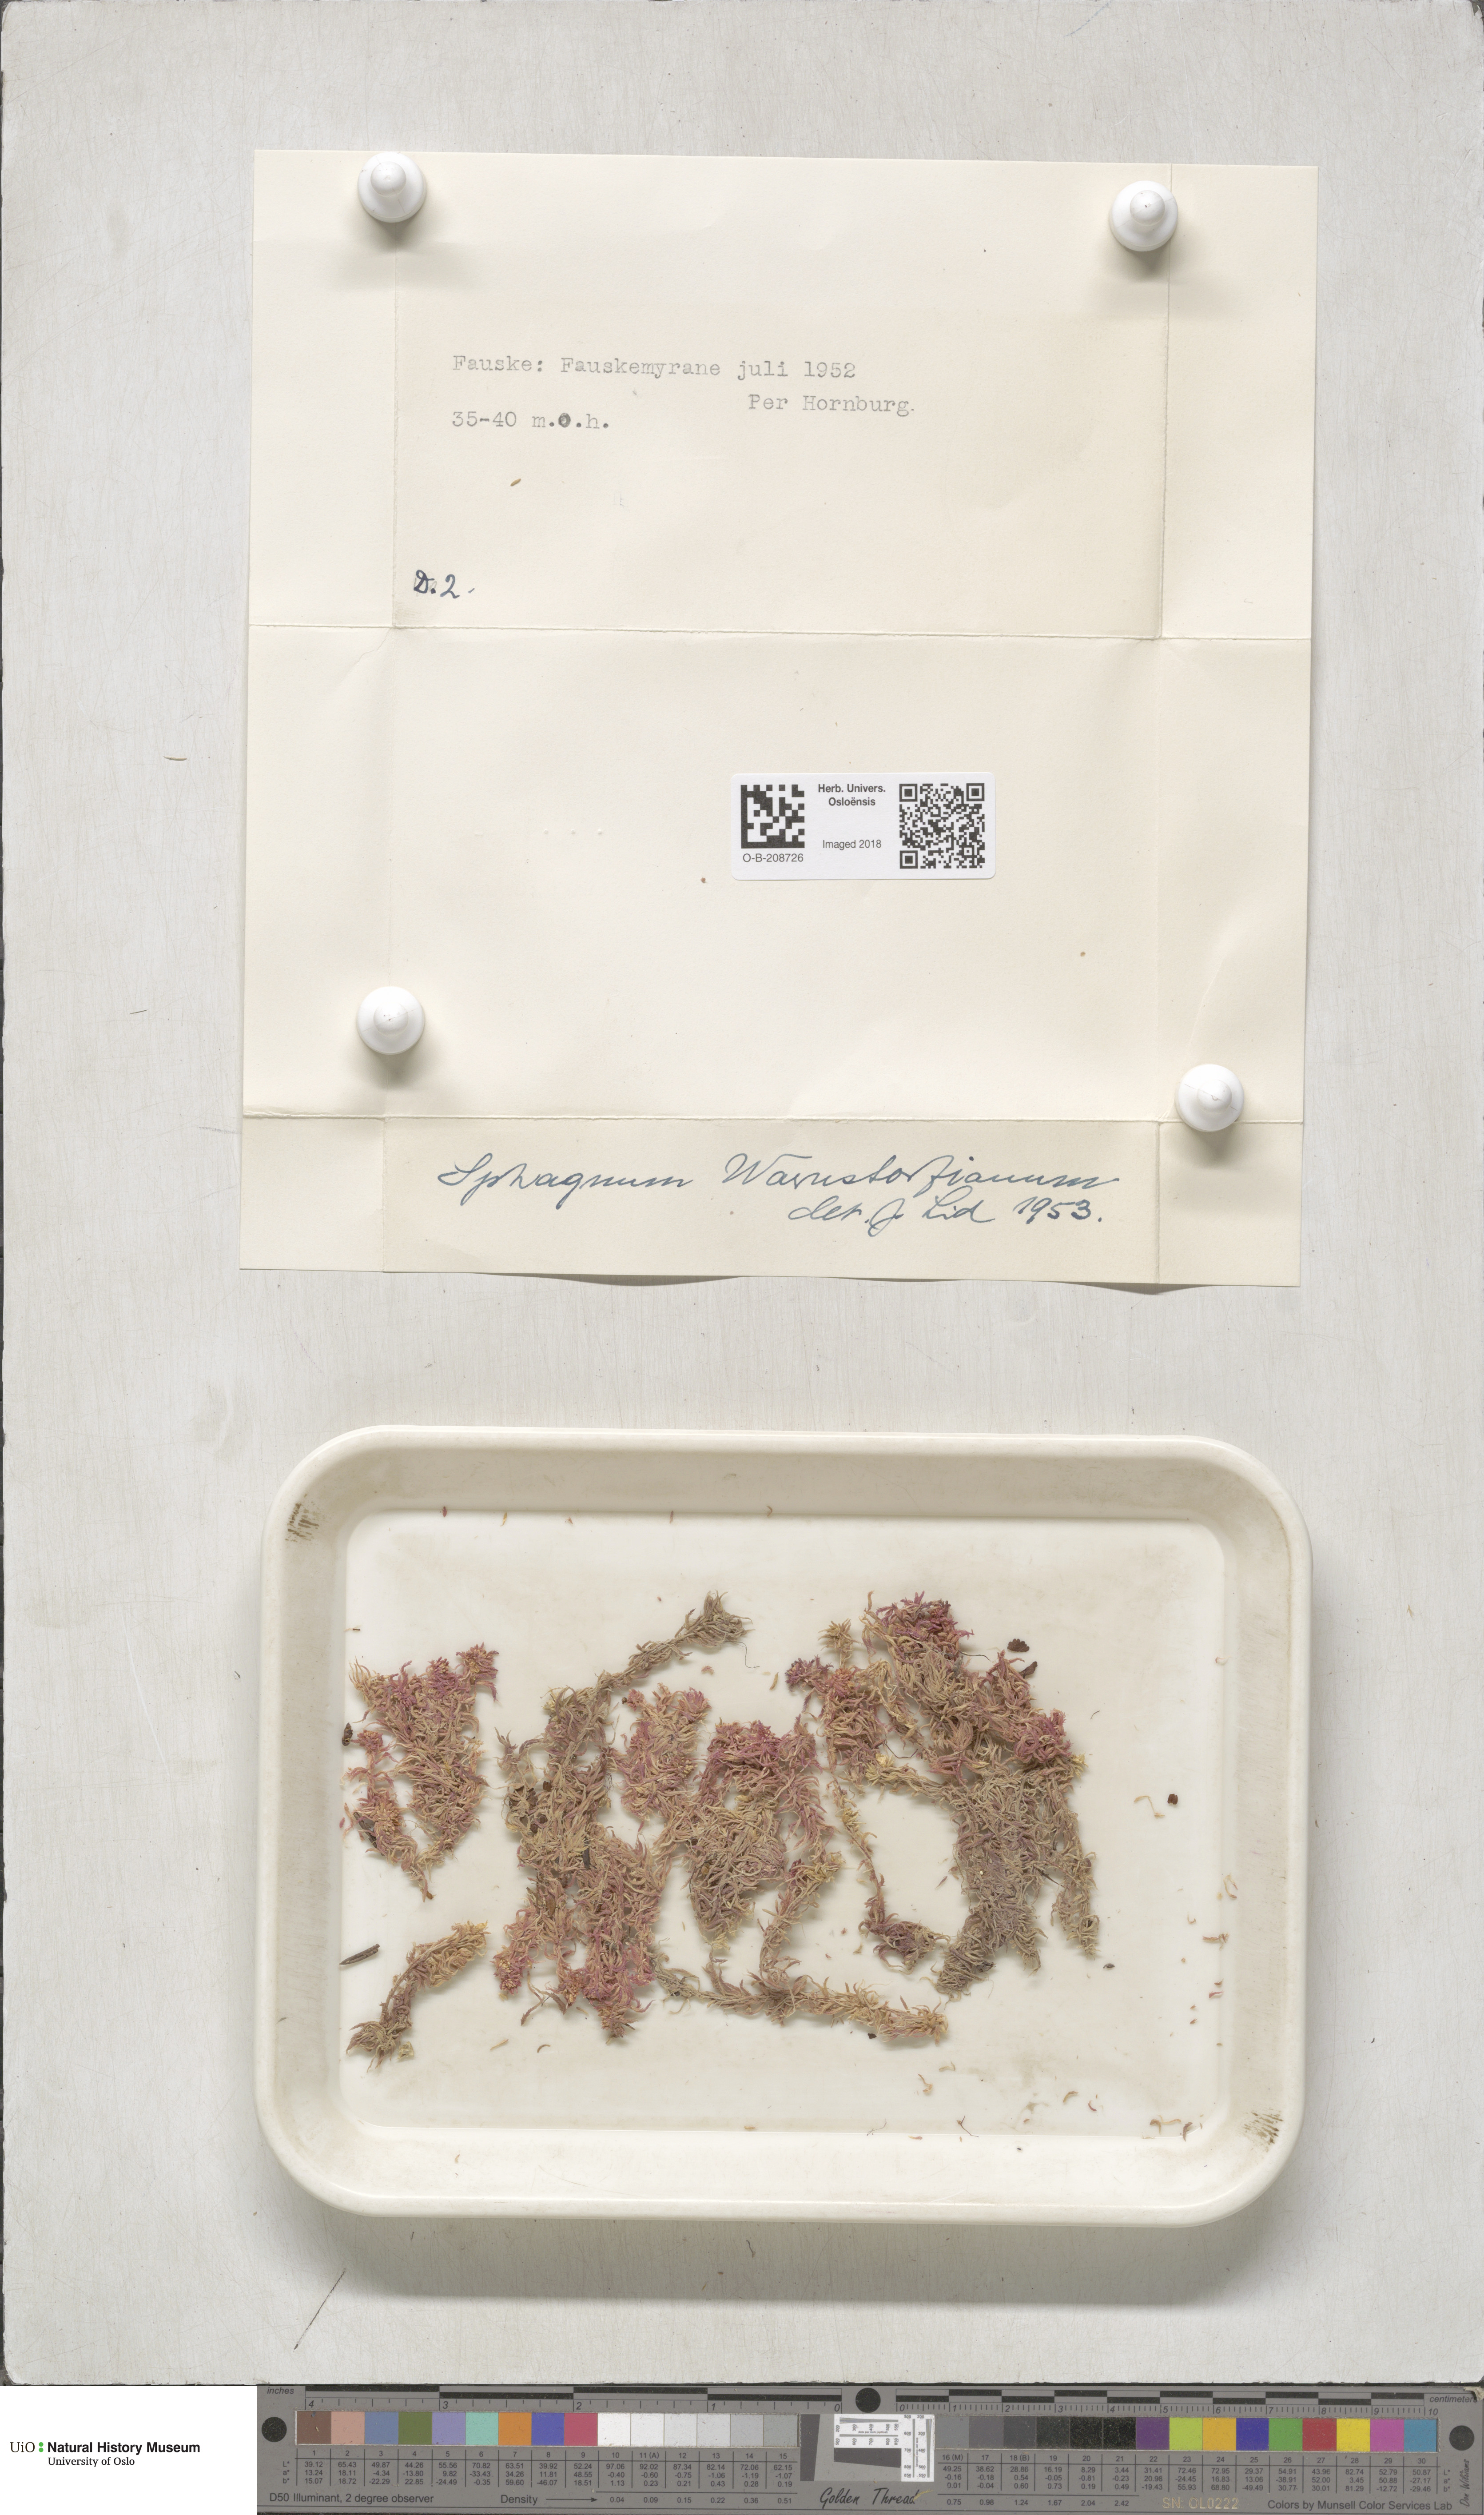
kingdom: Plantae
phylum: Bryophyta
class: Sphagnopsida
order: Sphagnales
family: Sphagnaceae
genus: Sphagnum
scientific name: Sphagnum warnstorfii
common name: Warnstorf's peat moss
